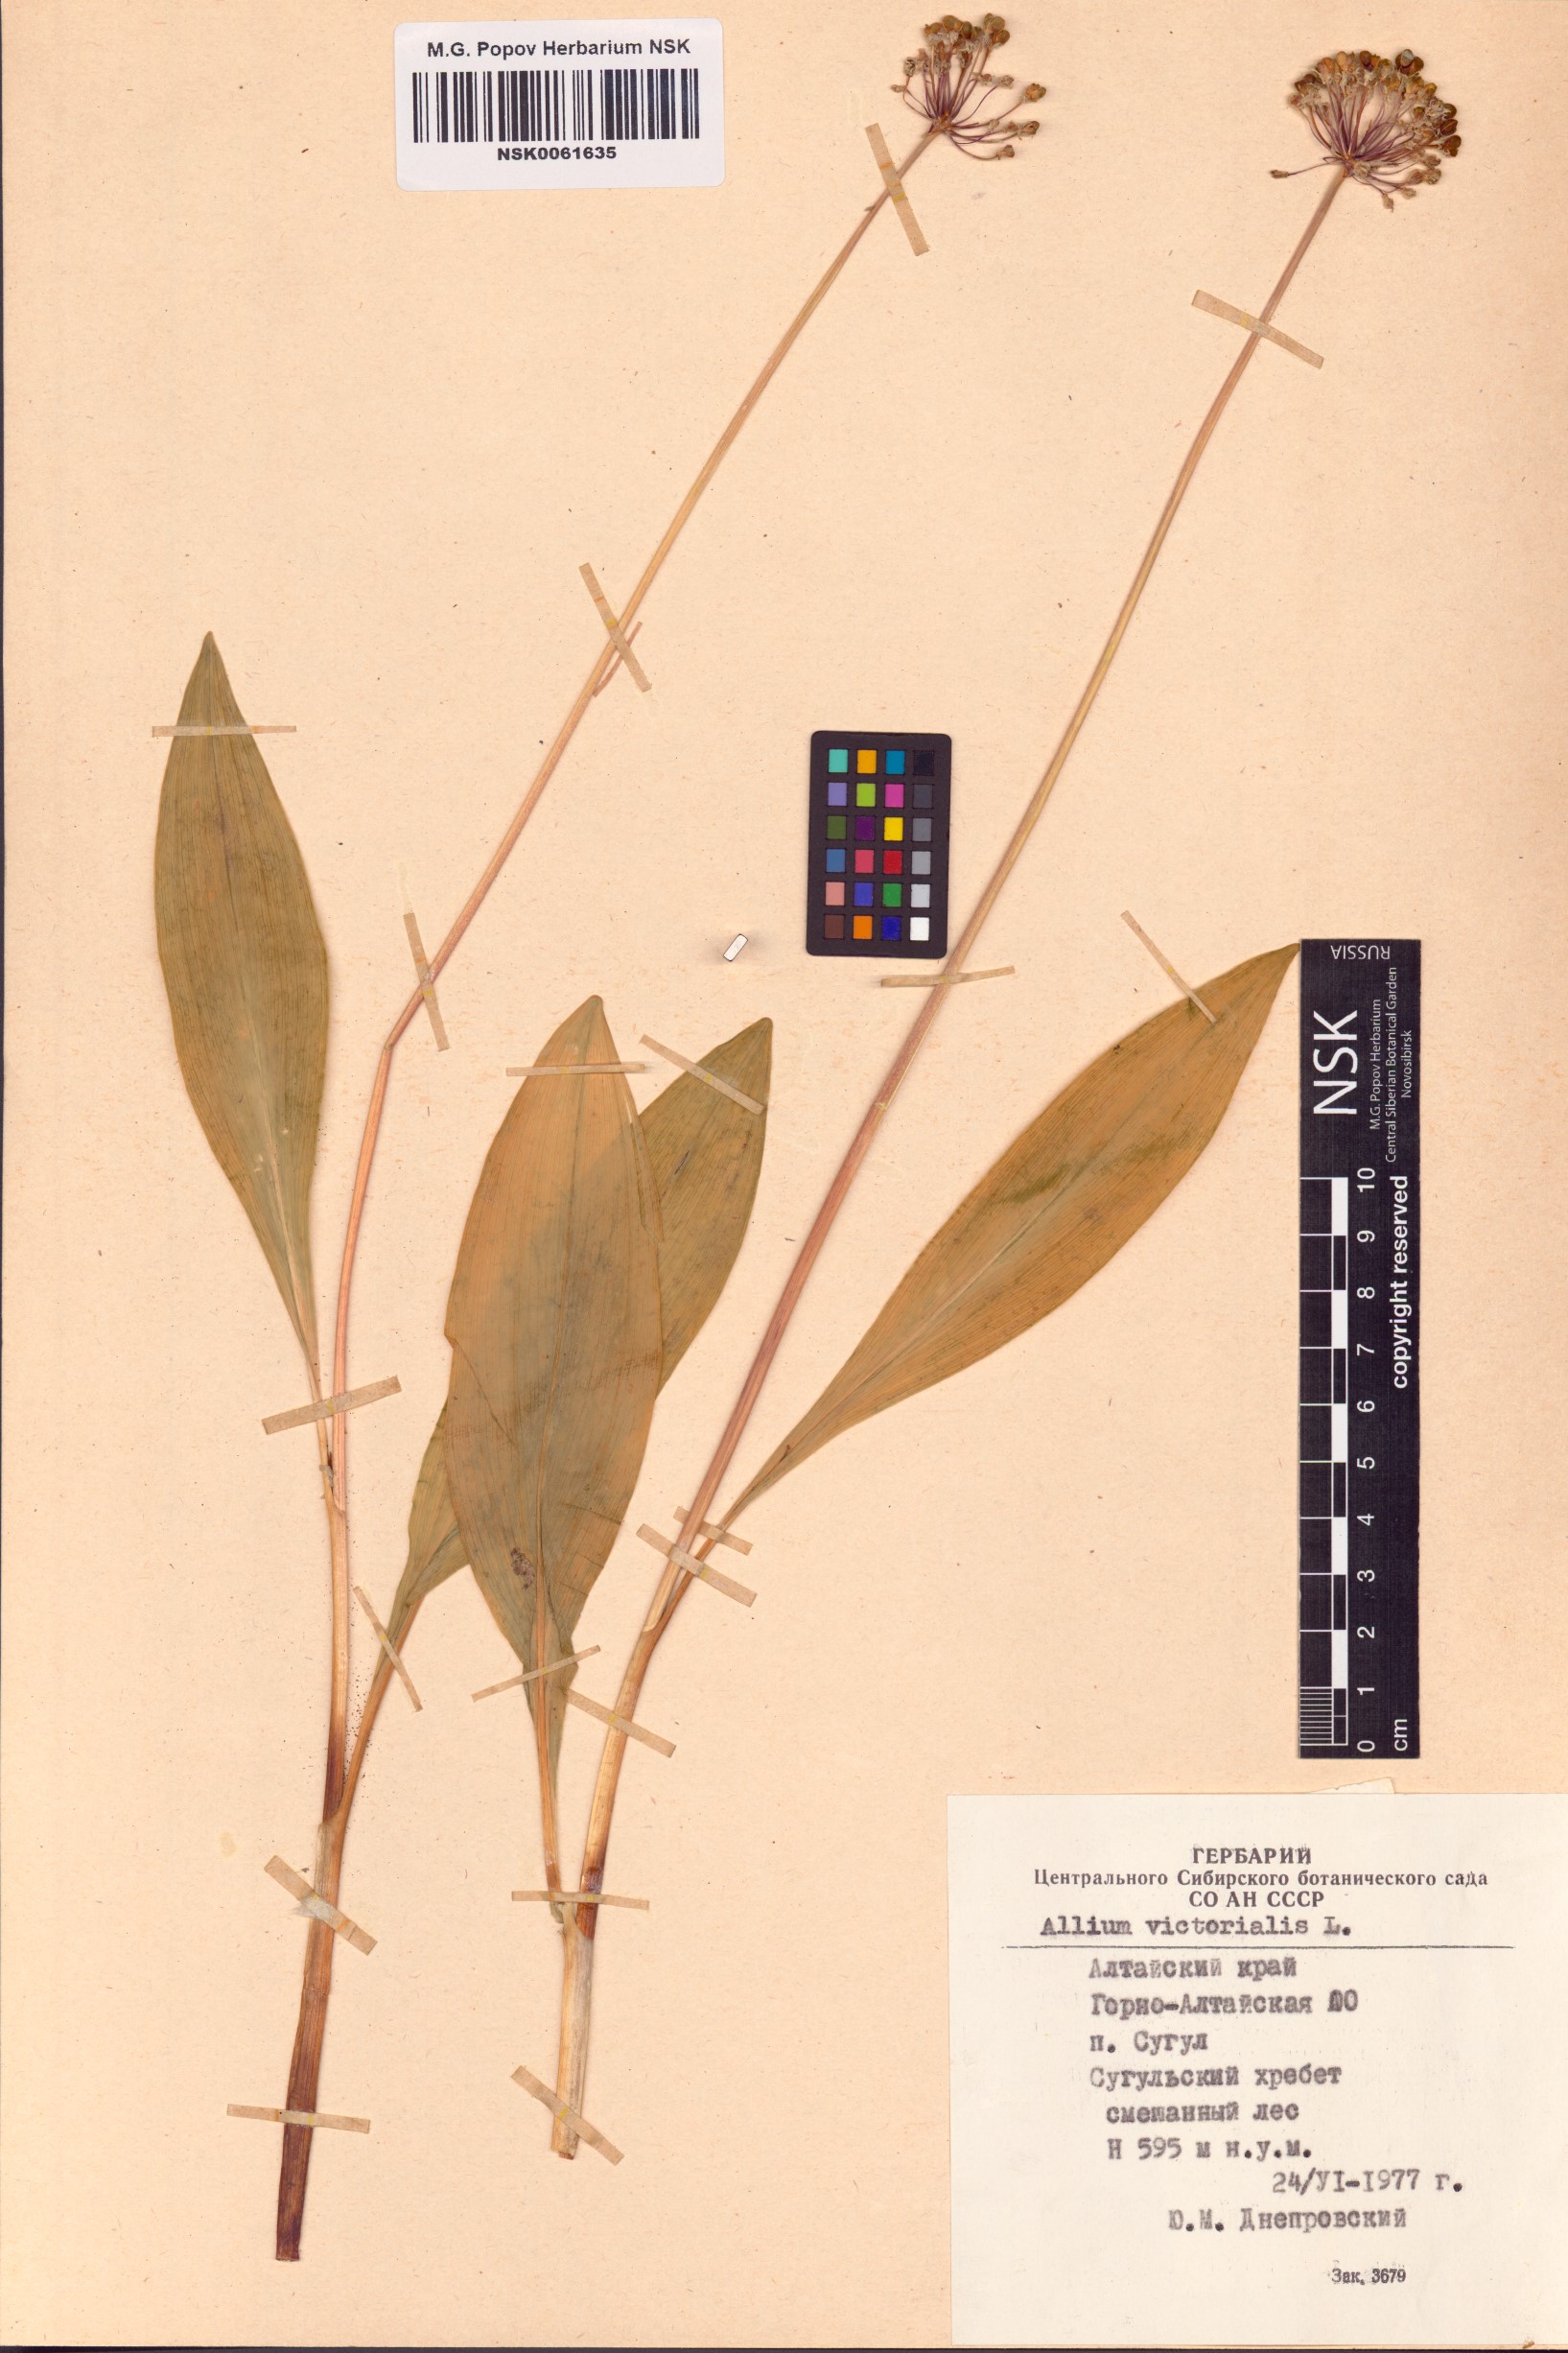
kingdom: Plantae
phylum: Tracheophyta
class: Liliopsida
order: Asparagales
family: Amaryllidaceae
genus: Allium
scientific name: Allium victorialis
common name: Alpine leek
